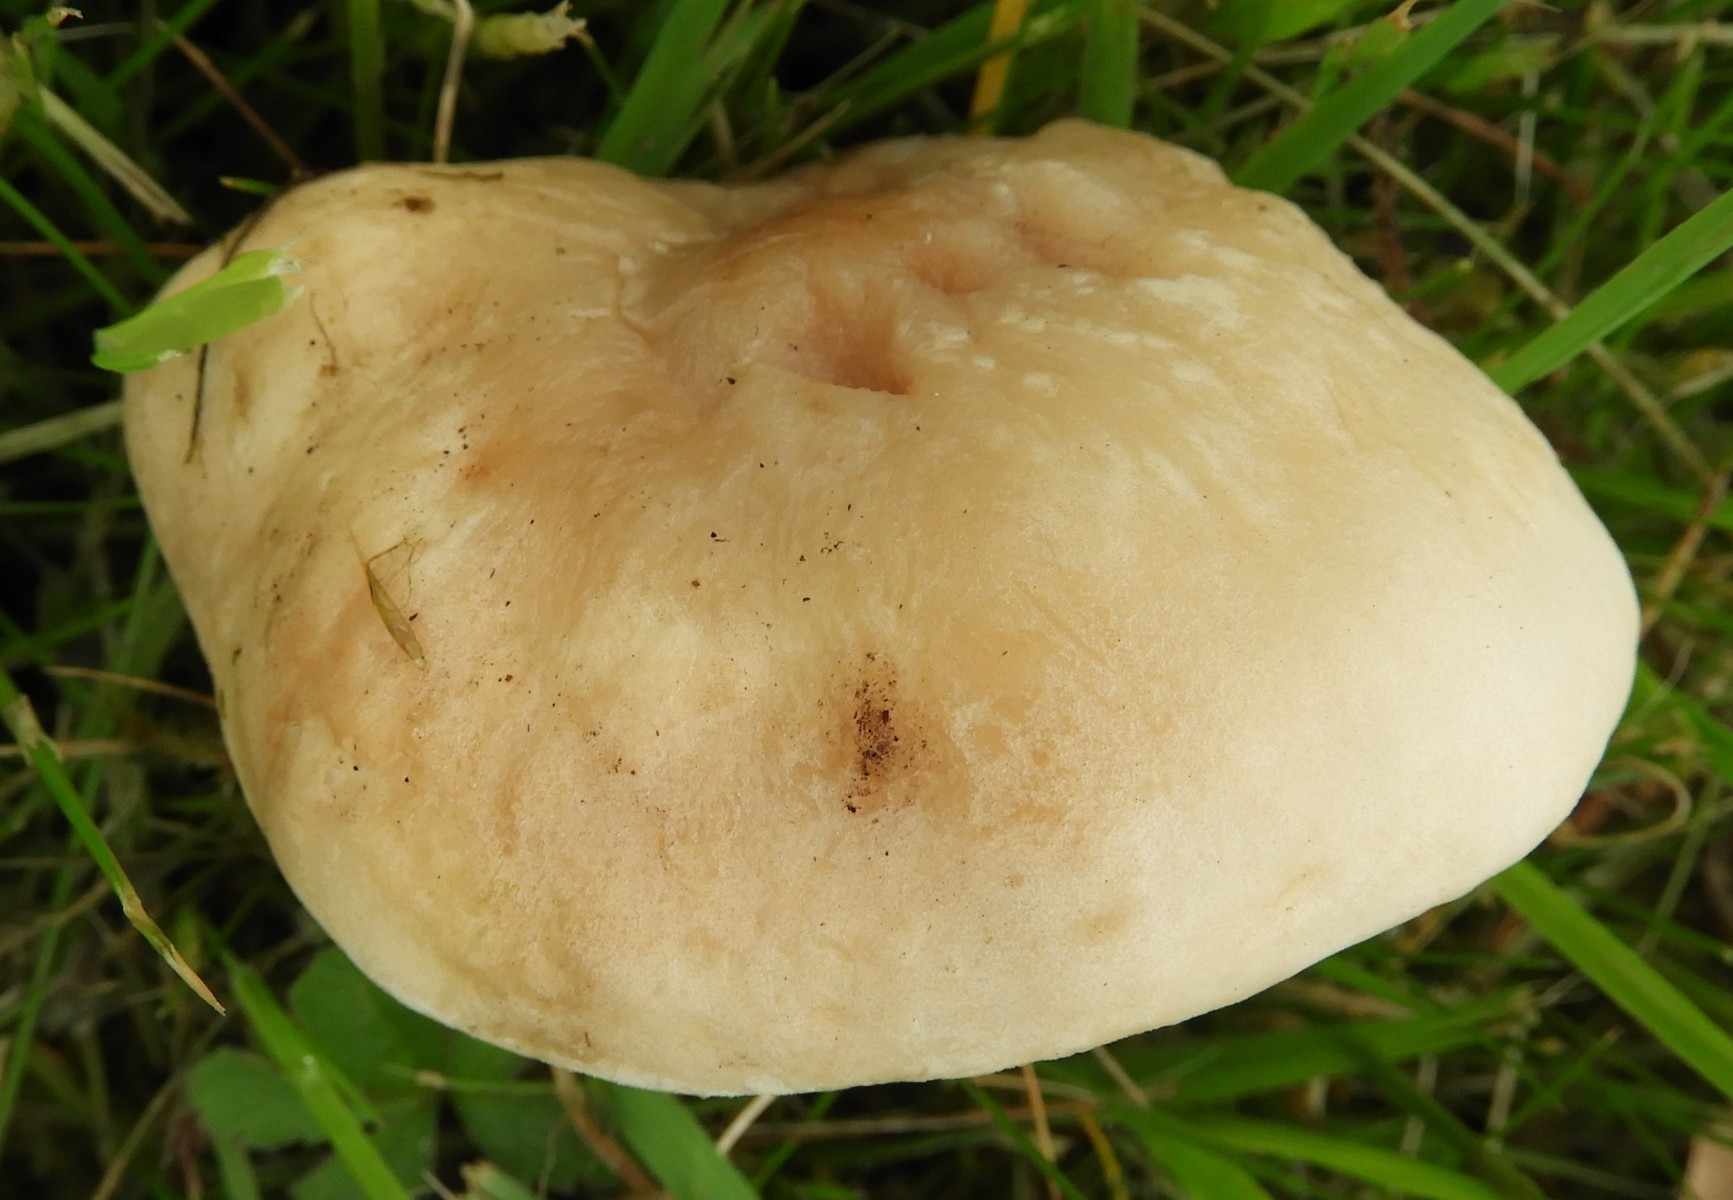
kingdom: Fungi
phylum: Basidiomycota
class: Agaricomycetes
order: Agaricales
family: Lyophyllaceae
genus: Calocybe
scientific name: Calocybe gambosa
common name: vårmusseron
